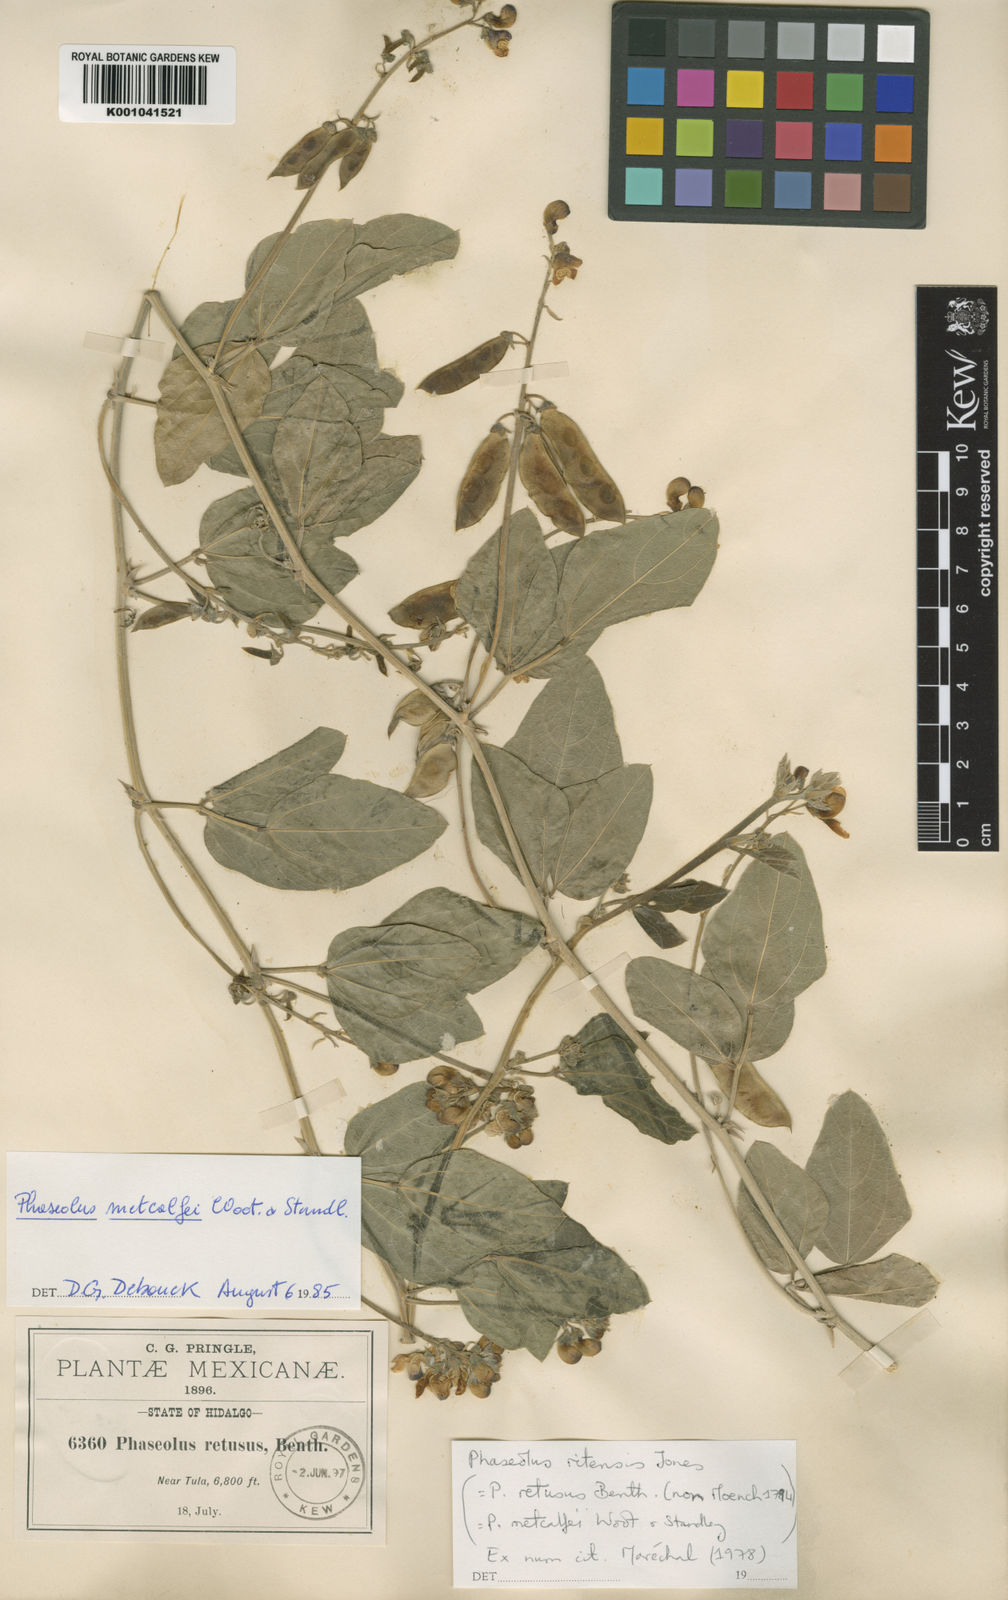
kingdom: Plantae
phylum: Tracheophyta
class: Magnoliopsida
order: Fabales
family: Fabaceae
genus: Phaseolus
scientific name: Phaseolus maculatus
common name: Metcalfe bean
